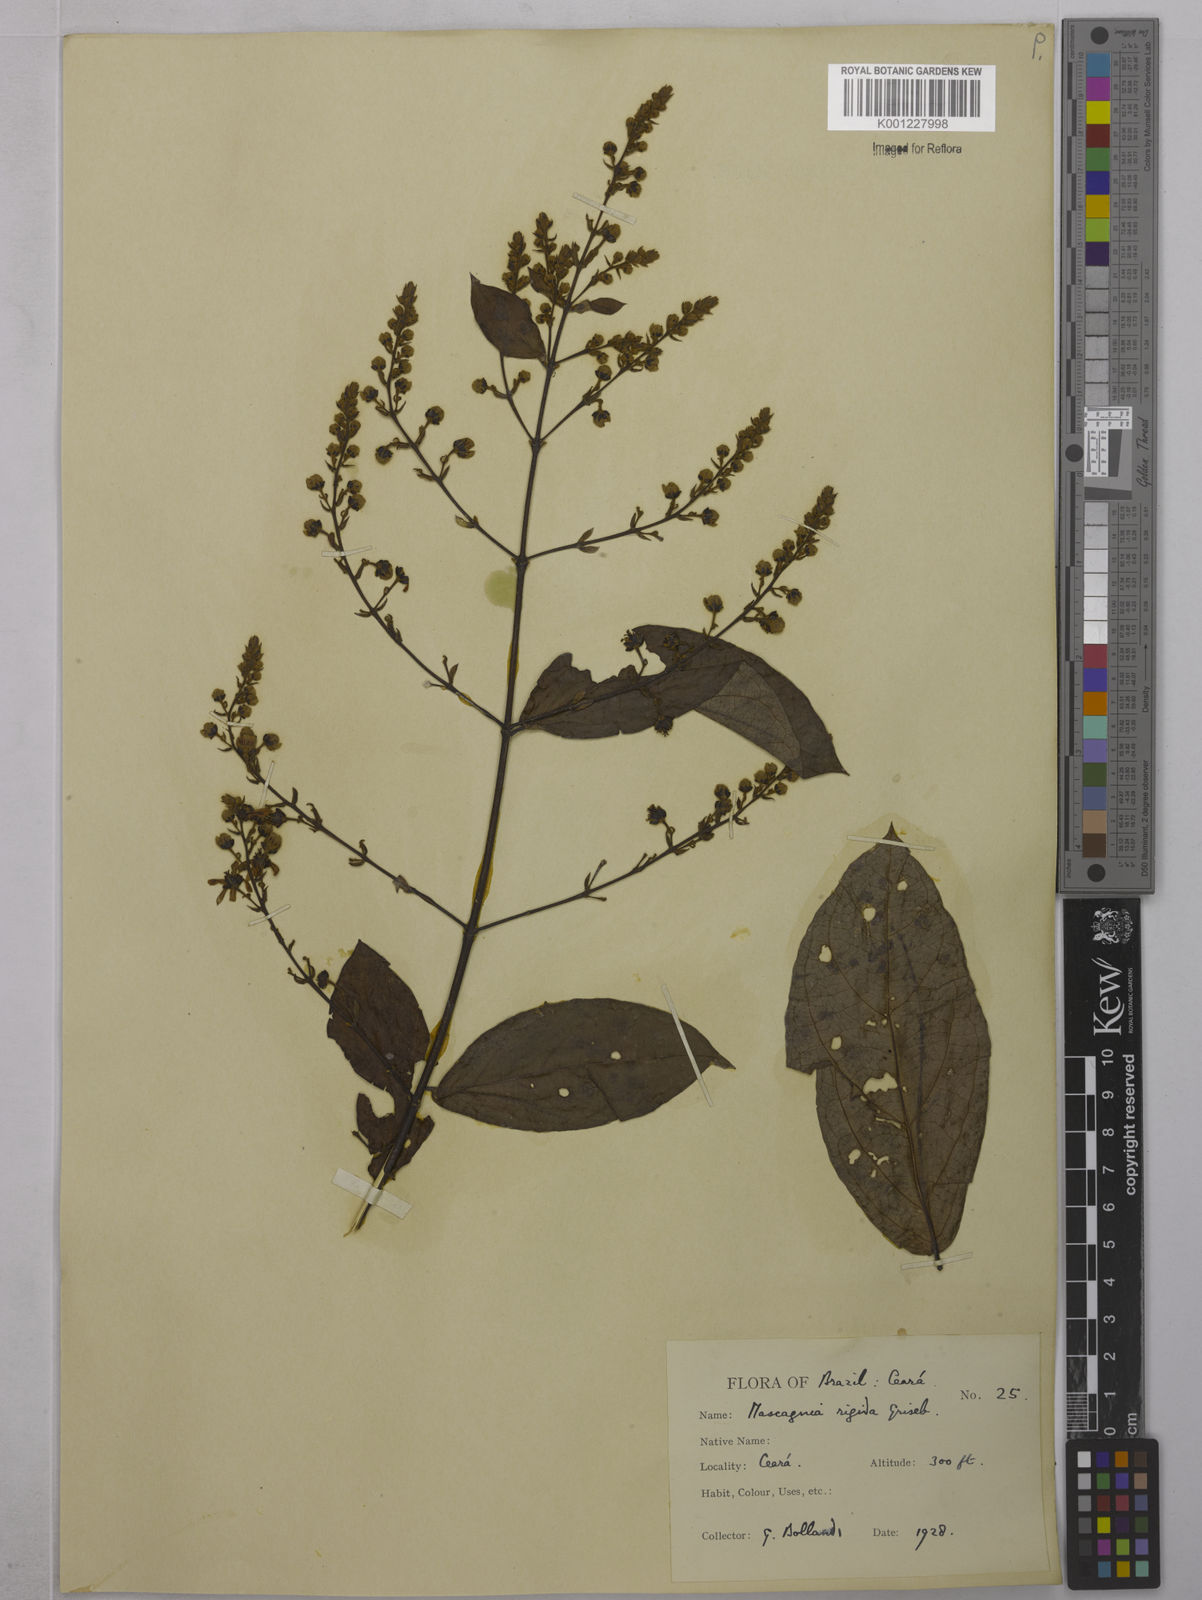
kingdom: Plantae
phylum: Tracheophyta
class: Magnoliopsida
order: Malpighiales
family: Malpighiaceae
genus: Amorimia
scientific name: Amorimia rigida
